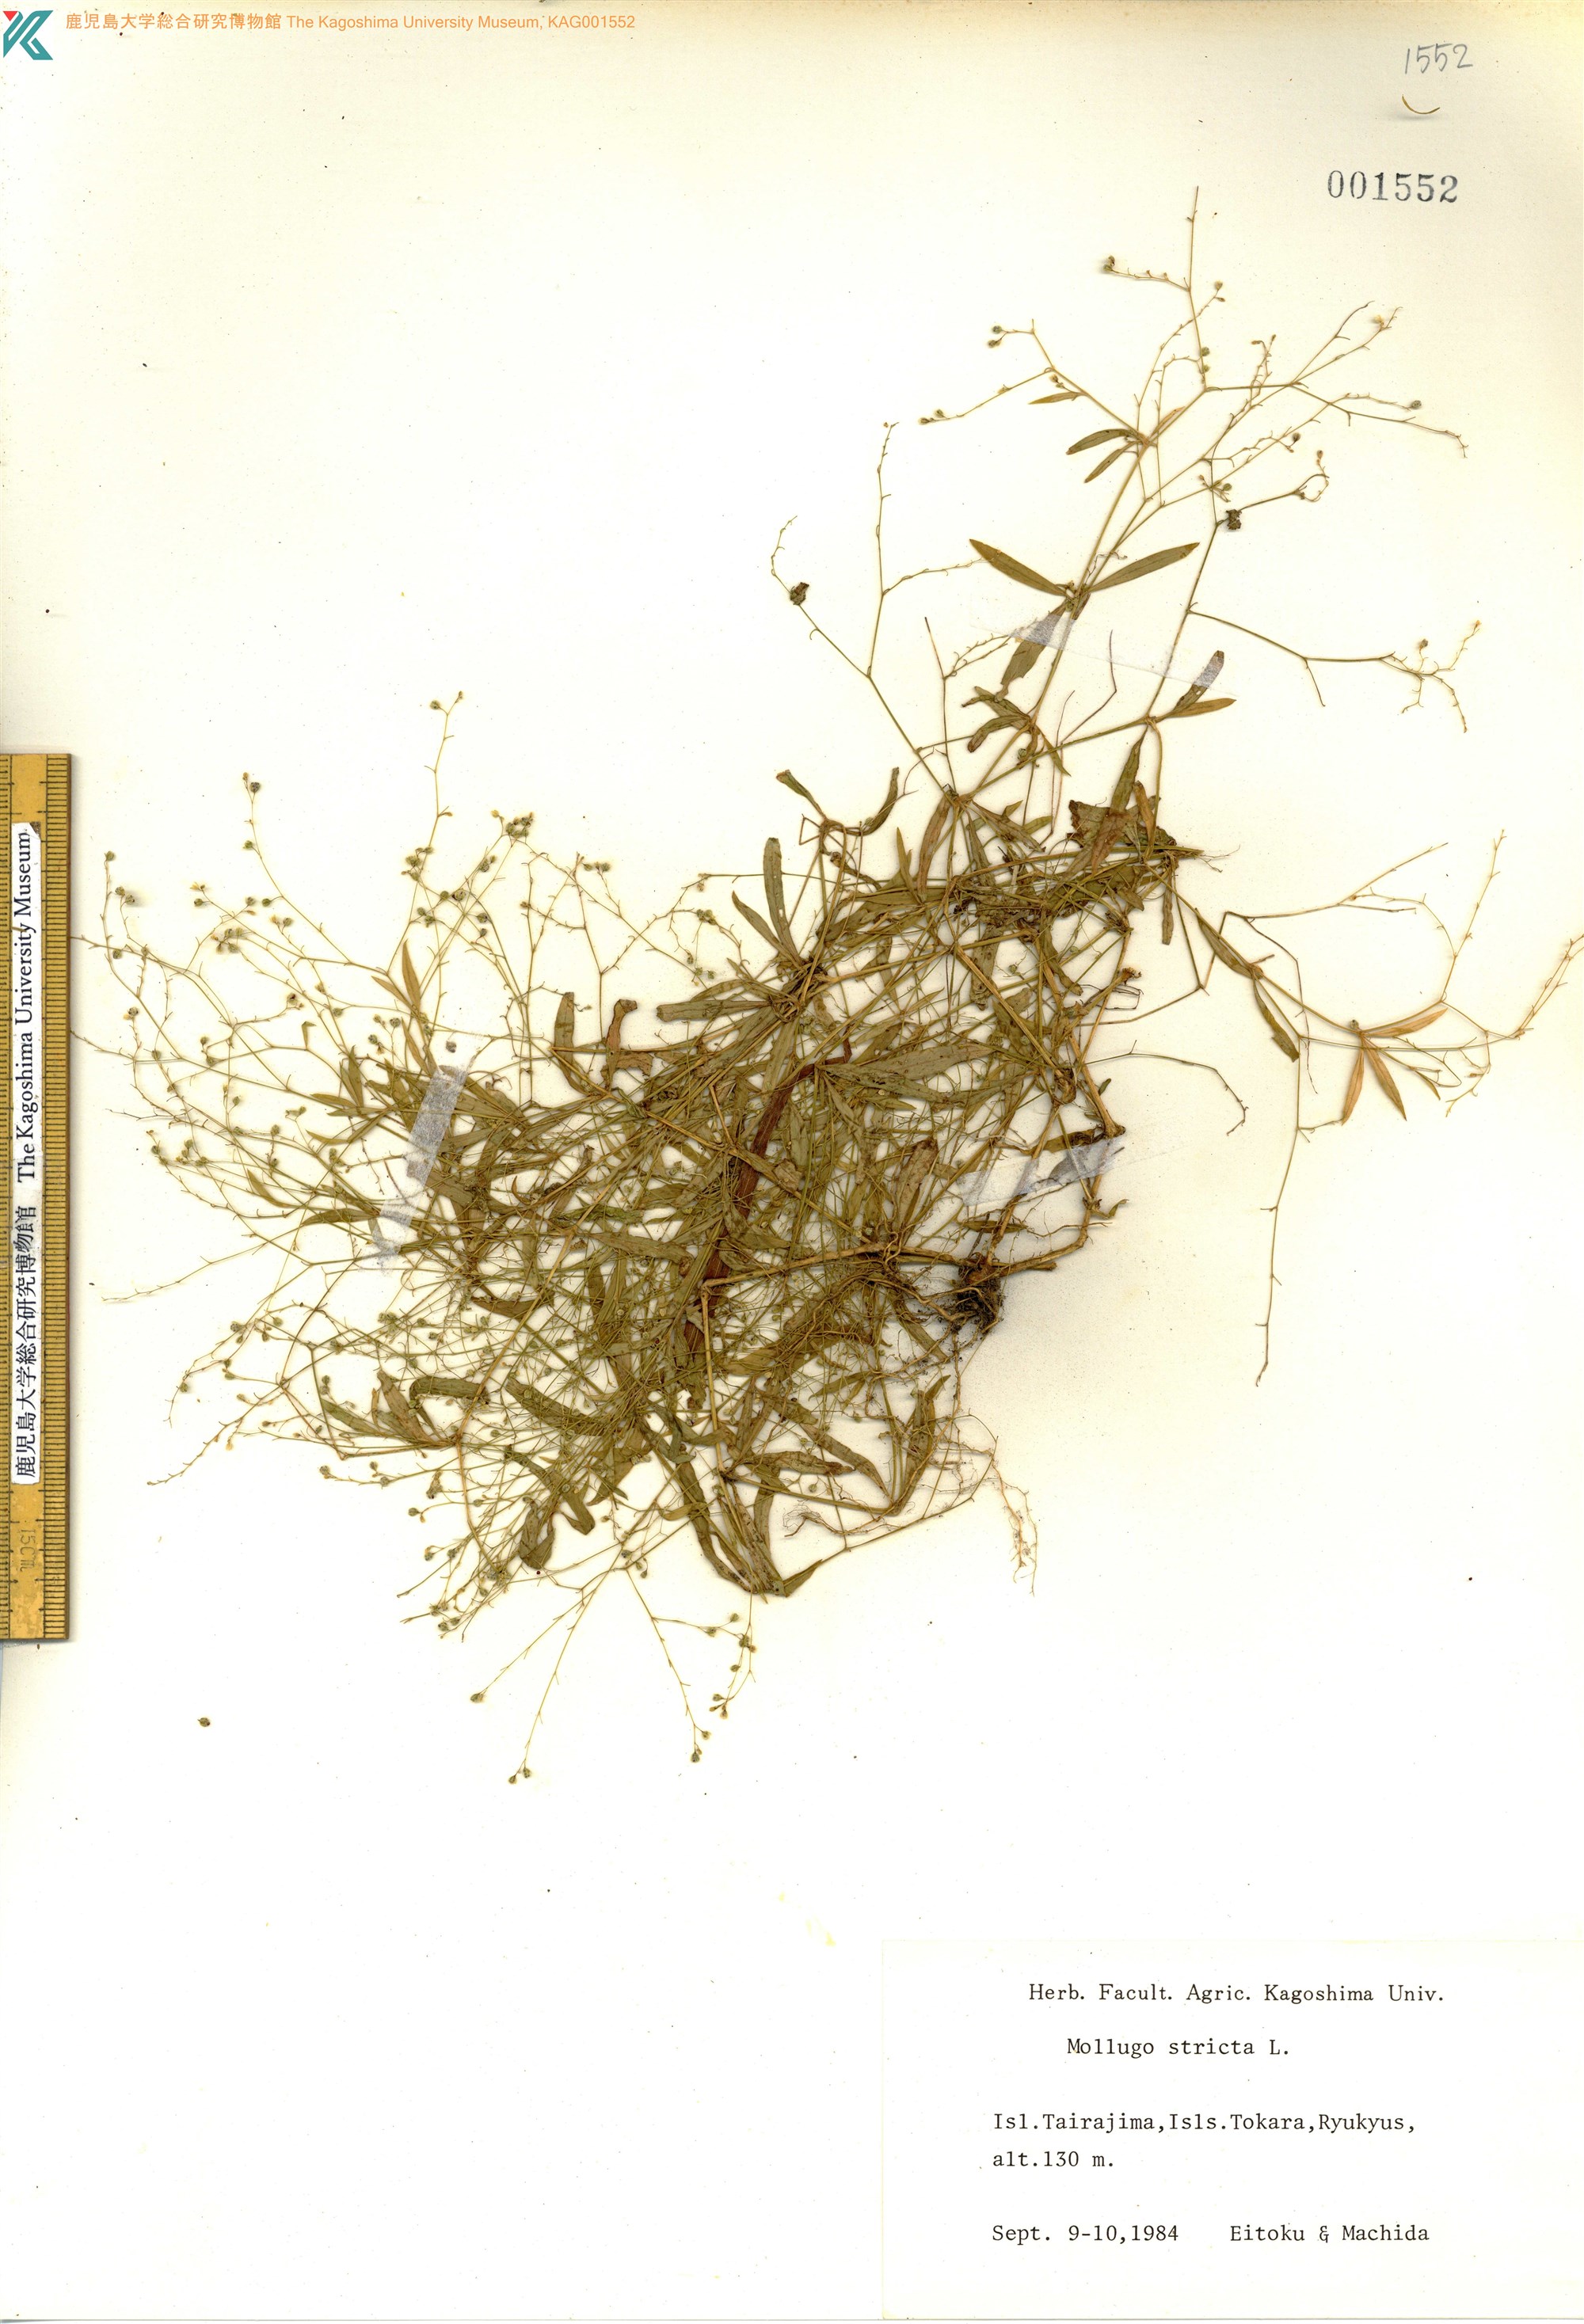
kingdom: Plantae
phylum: Tracheophyta
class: Magnoliopsida
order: Caryophyllales
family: Molluginaceae
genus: Trigastrotheca
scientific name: Trigastrotheca stricta
